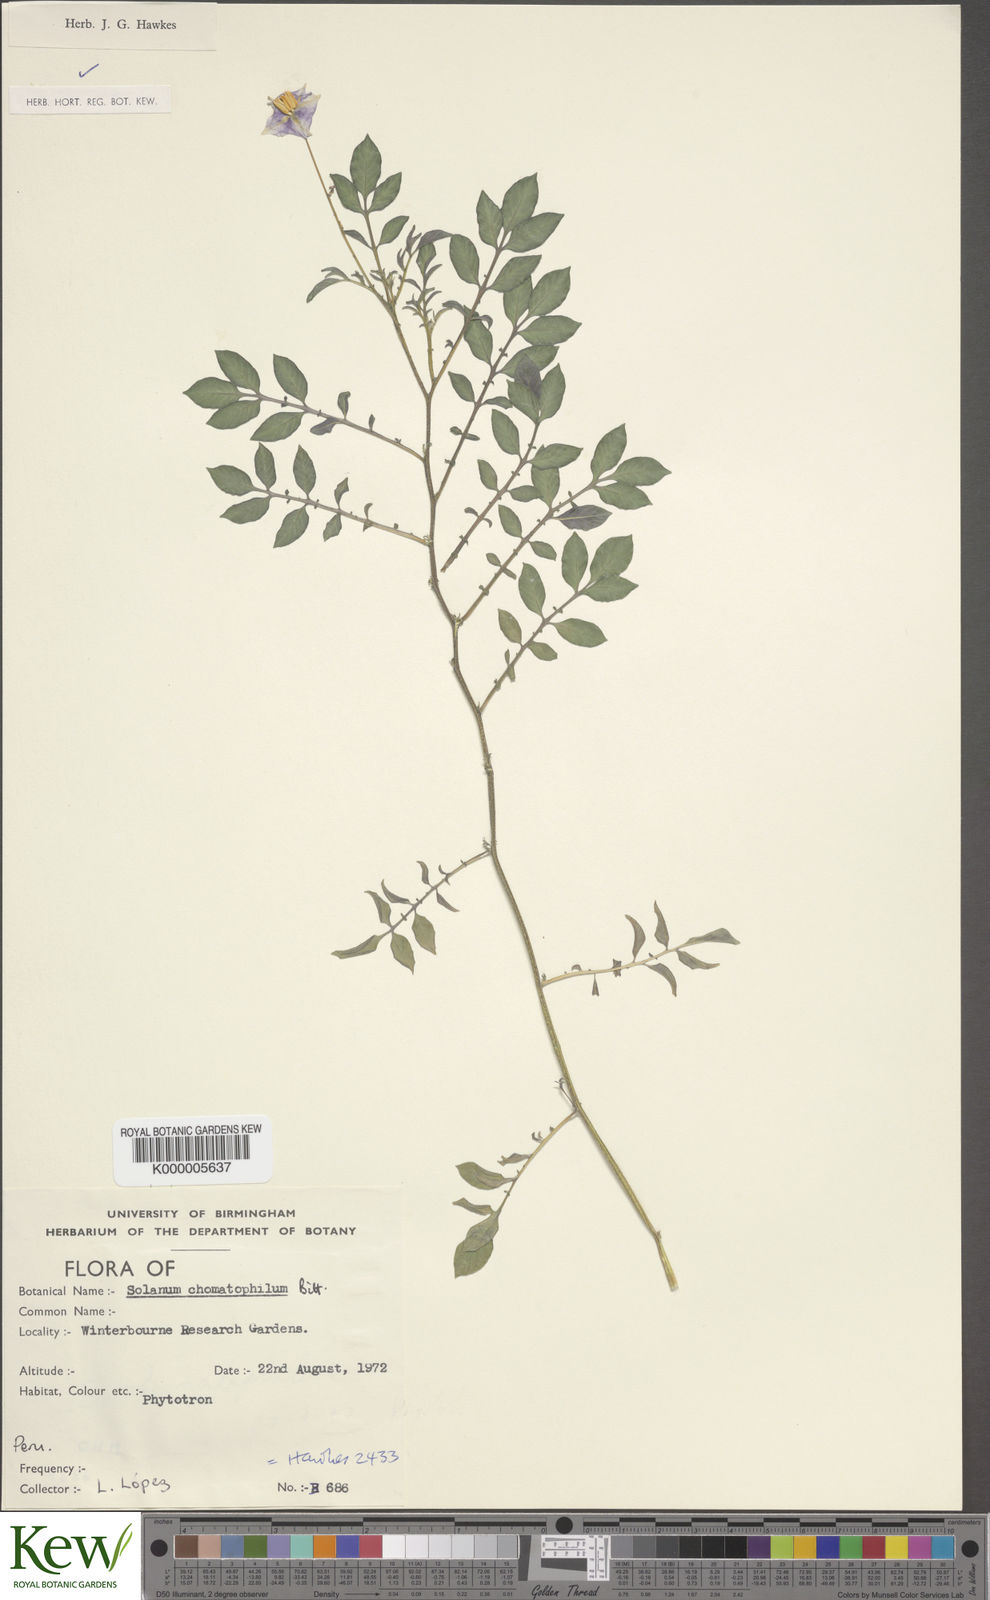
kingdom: Plantae
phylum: Tracheophyta
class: Magnoliopsida
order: Solanales
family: Solanaceae
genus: Solanum
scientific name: Solanum chomatophilum
